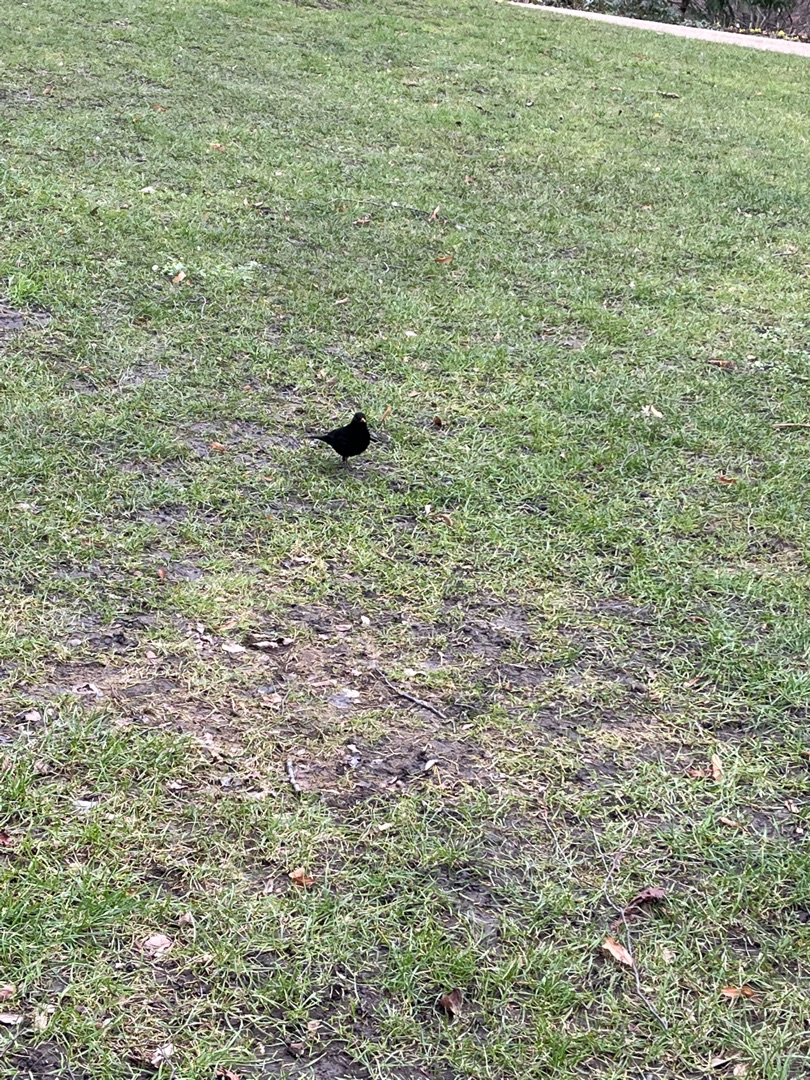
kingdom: Animalia
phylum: Chordata
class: Aves
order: Passeriformes
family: Turdidae
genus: Turdus
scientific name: Turdus merula
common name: Solsort
